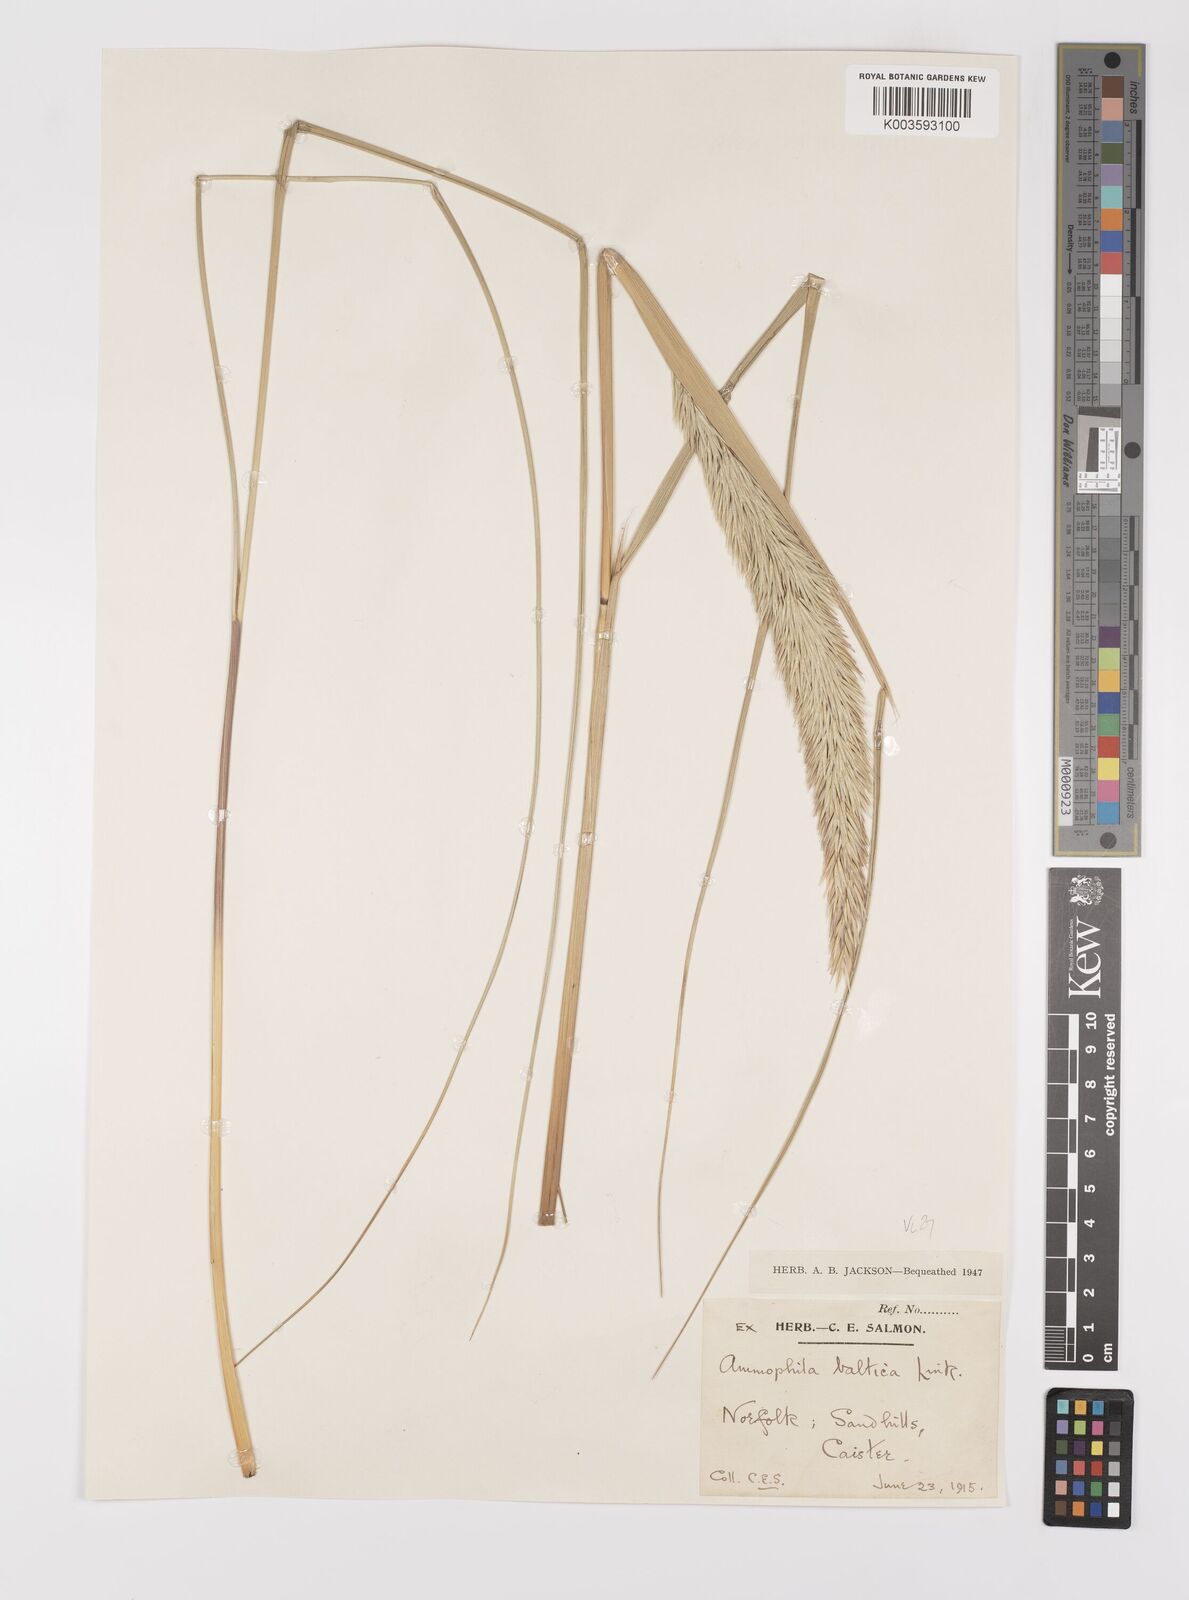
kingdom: Plantae
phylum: Tracheophyta
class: Liliopsida
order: Poales
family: Poaceae
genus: Calamagrostis
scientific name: Calamagrostis baltica
